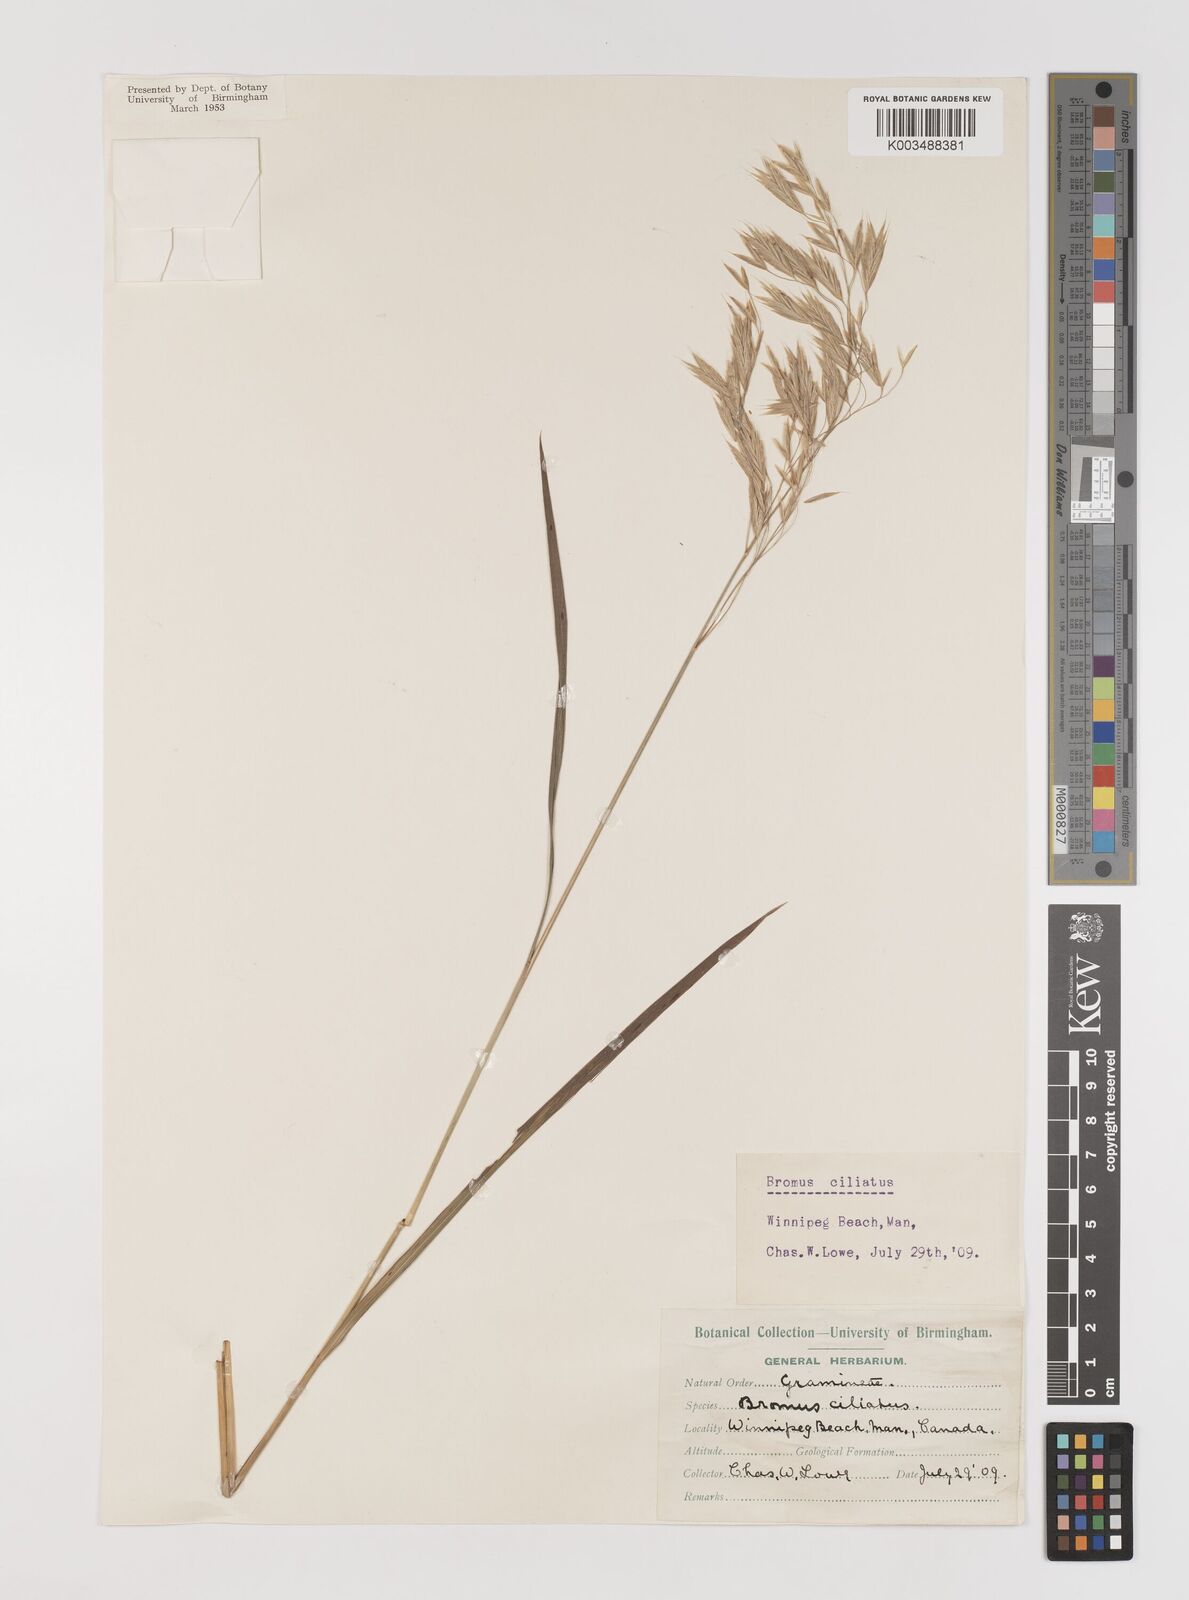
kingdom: Plantae
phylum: Tracheophyta
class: Liliopsida
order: Poales
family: Poaceae
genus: Bromus
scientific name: Bromus ciliatus
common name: Fringe brome
